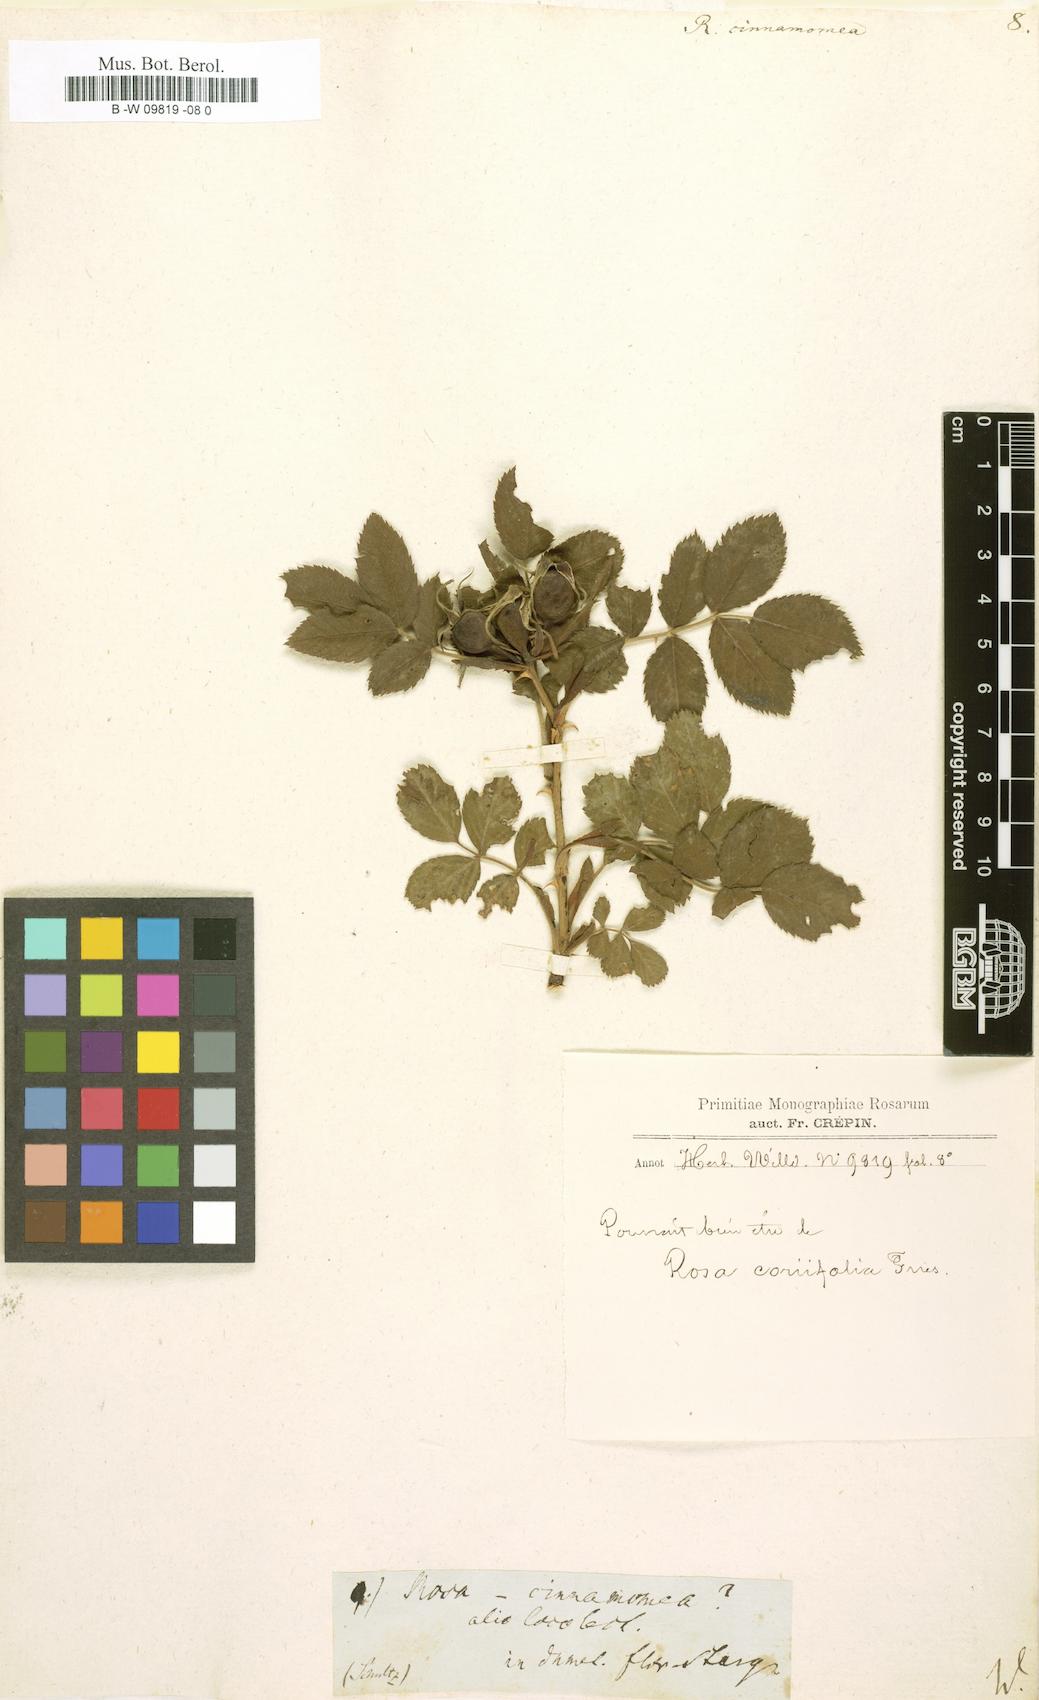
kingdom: Plantae
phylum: Tracheophyta
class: Magnoliopsida
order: Rosales
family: Rosaceae
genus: Rosa
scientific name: Rosa pendulina
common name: Alpine rose
